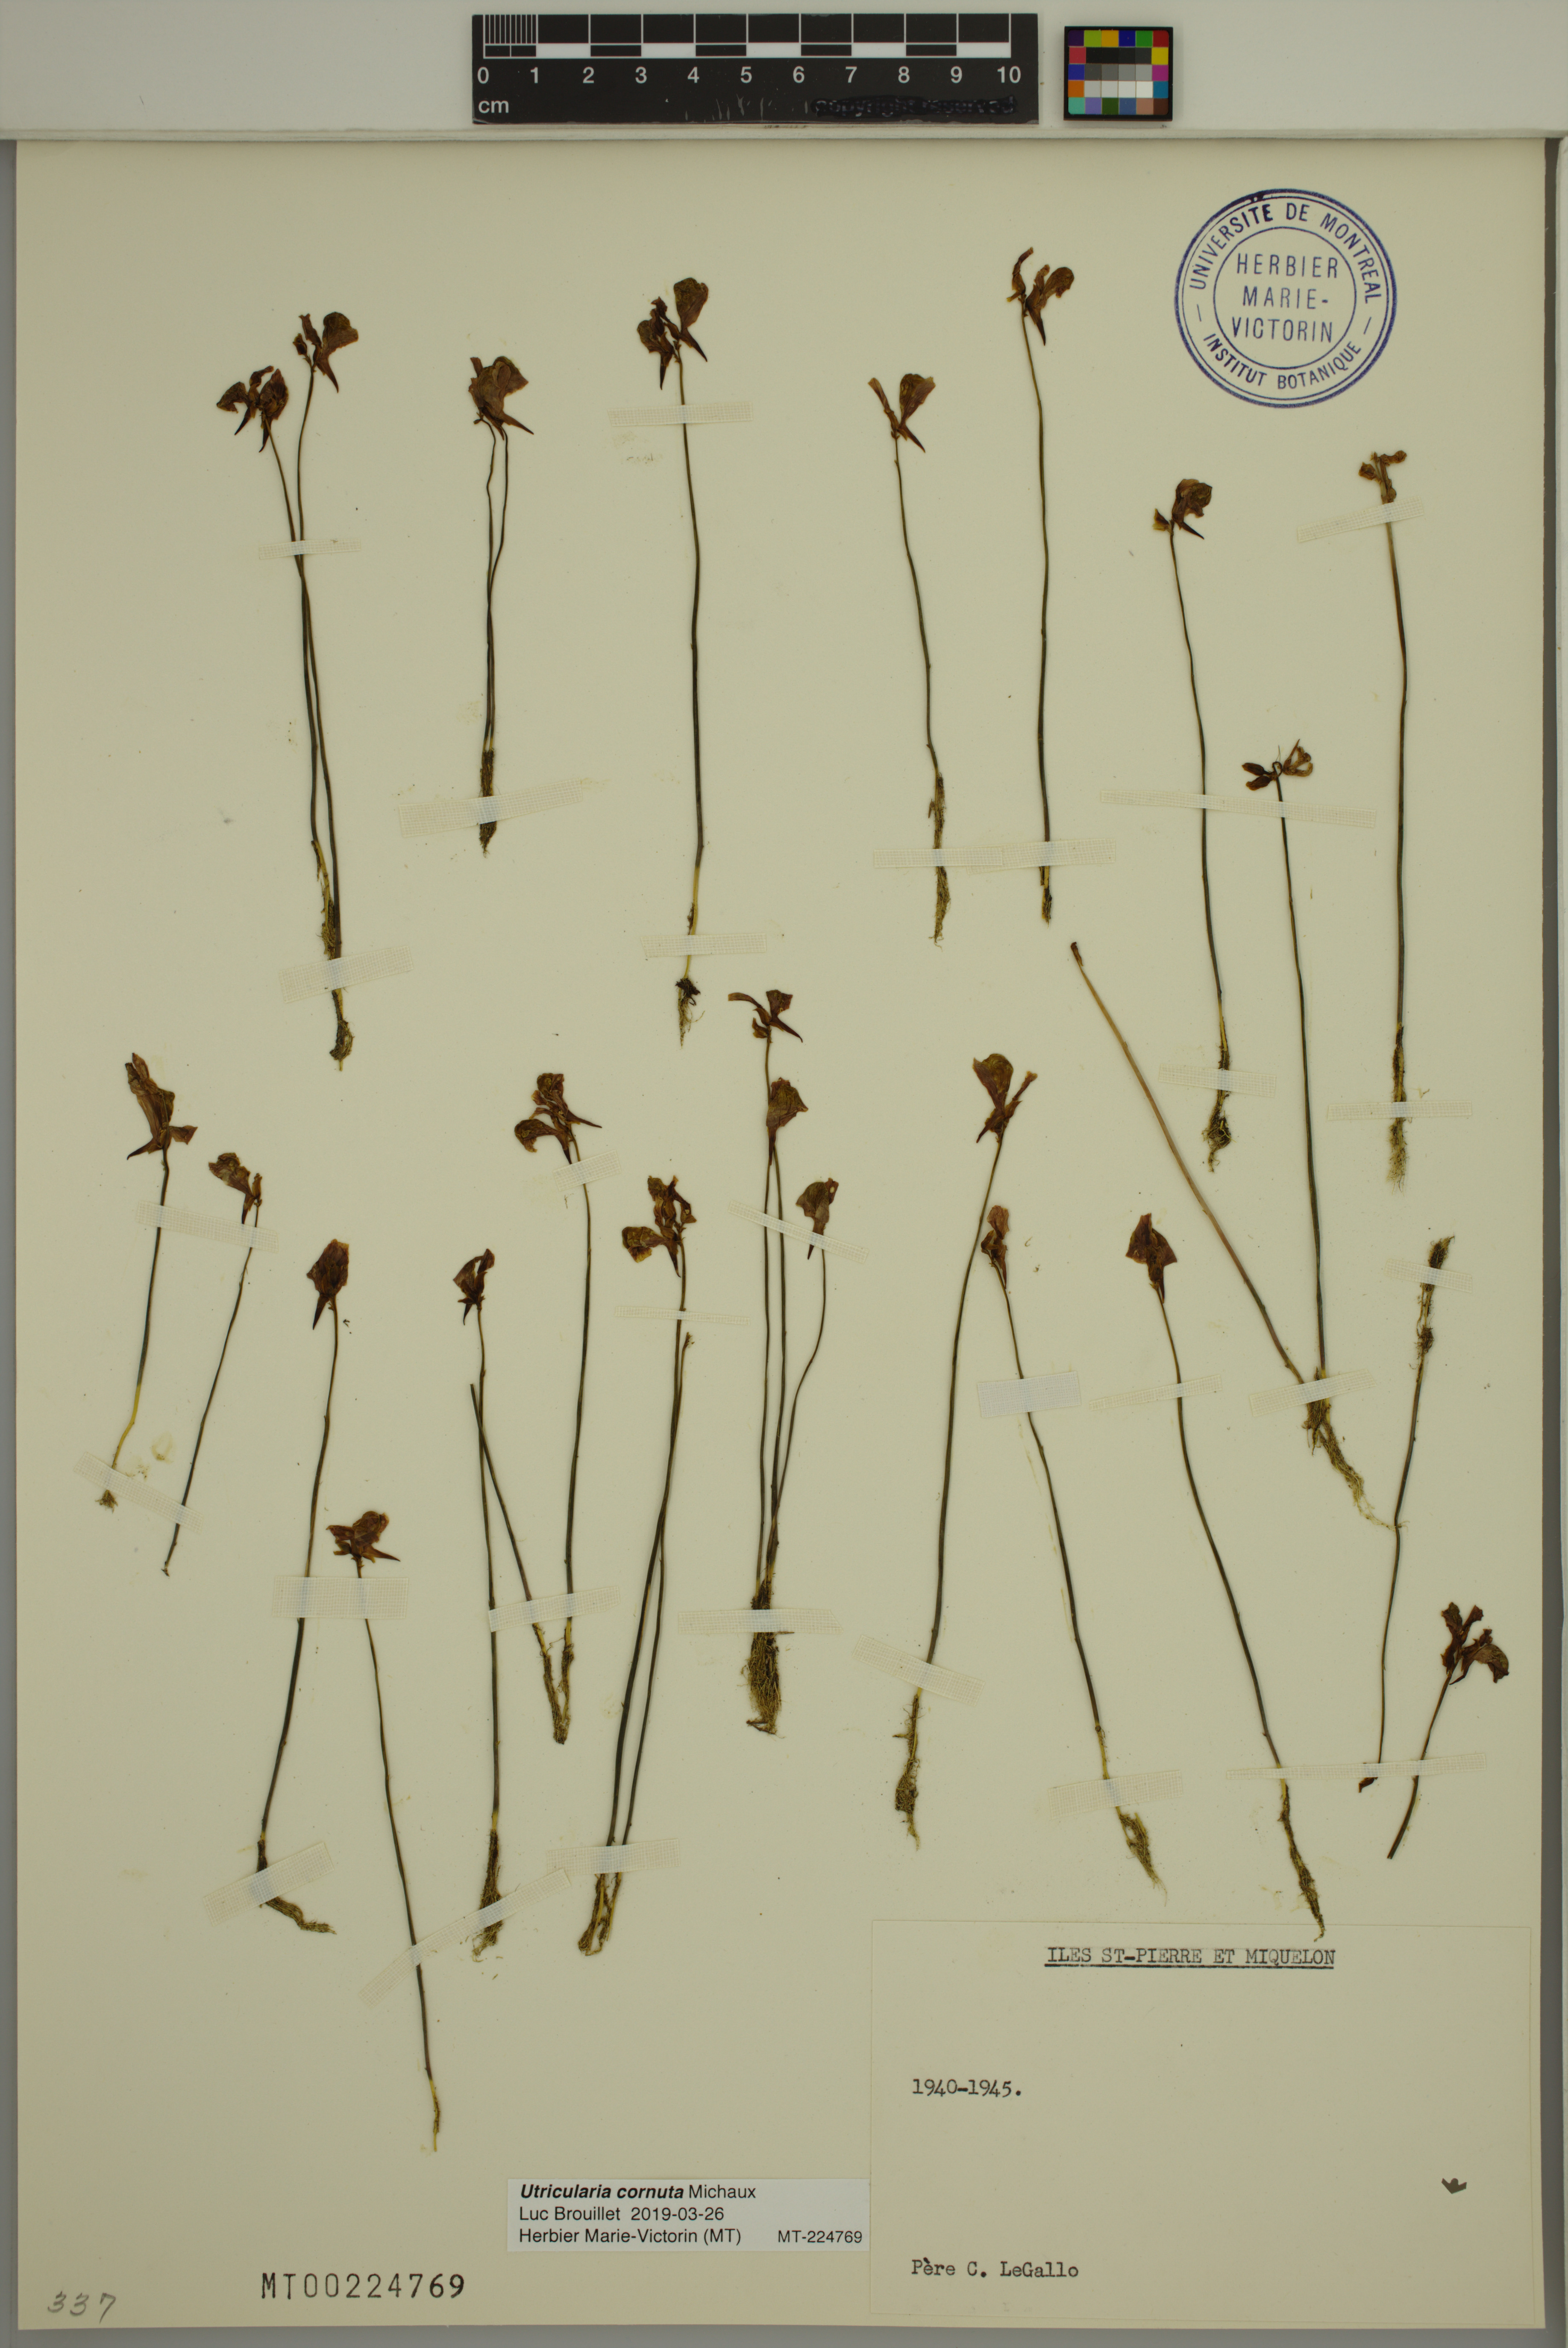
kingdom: Plantae
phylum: Tracheophyta
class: Magnoliopsida
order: Lamiales
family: Lentibulariaceae
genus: Utricularia
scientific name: Utricularia cornuta
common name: Horned bladderwort
